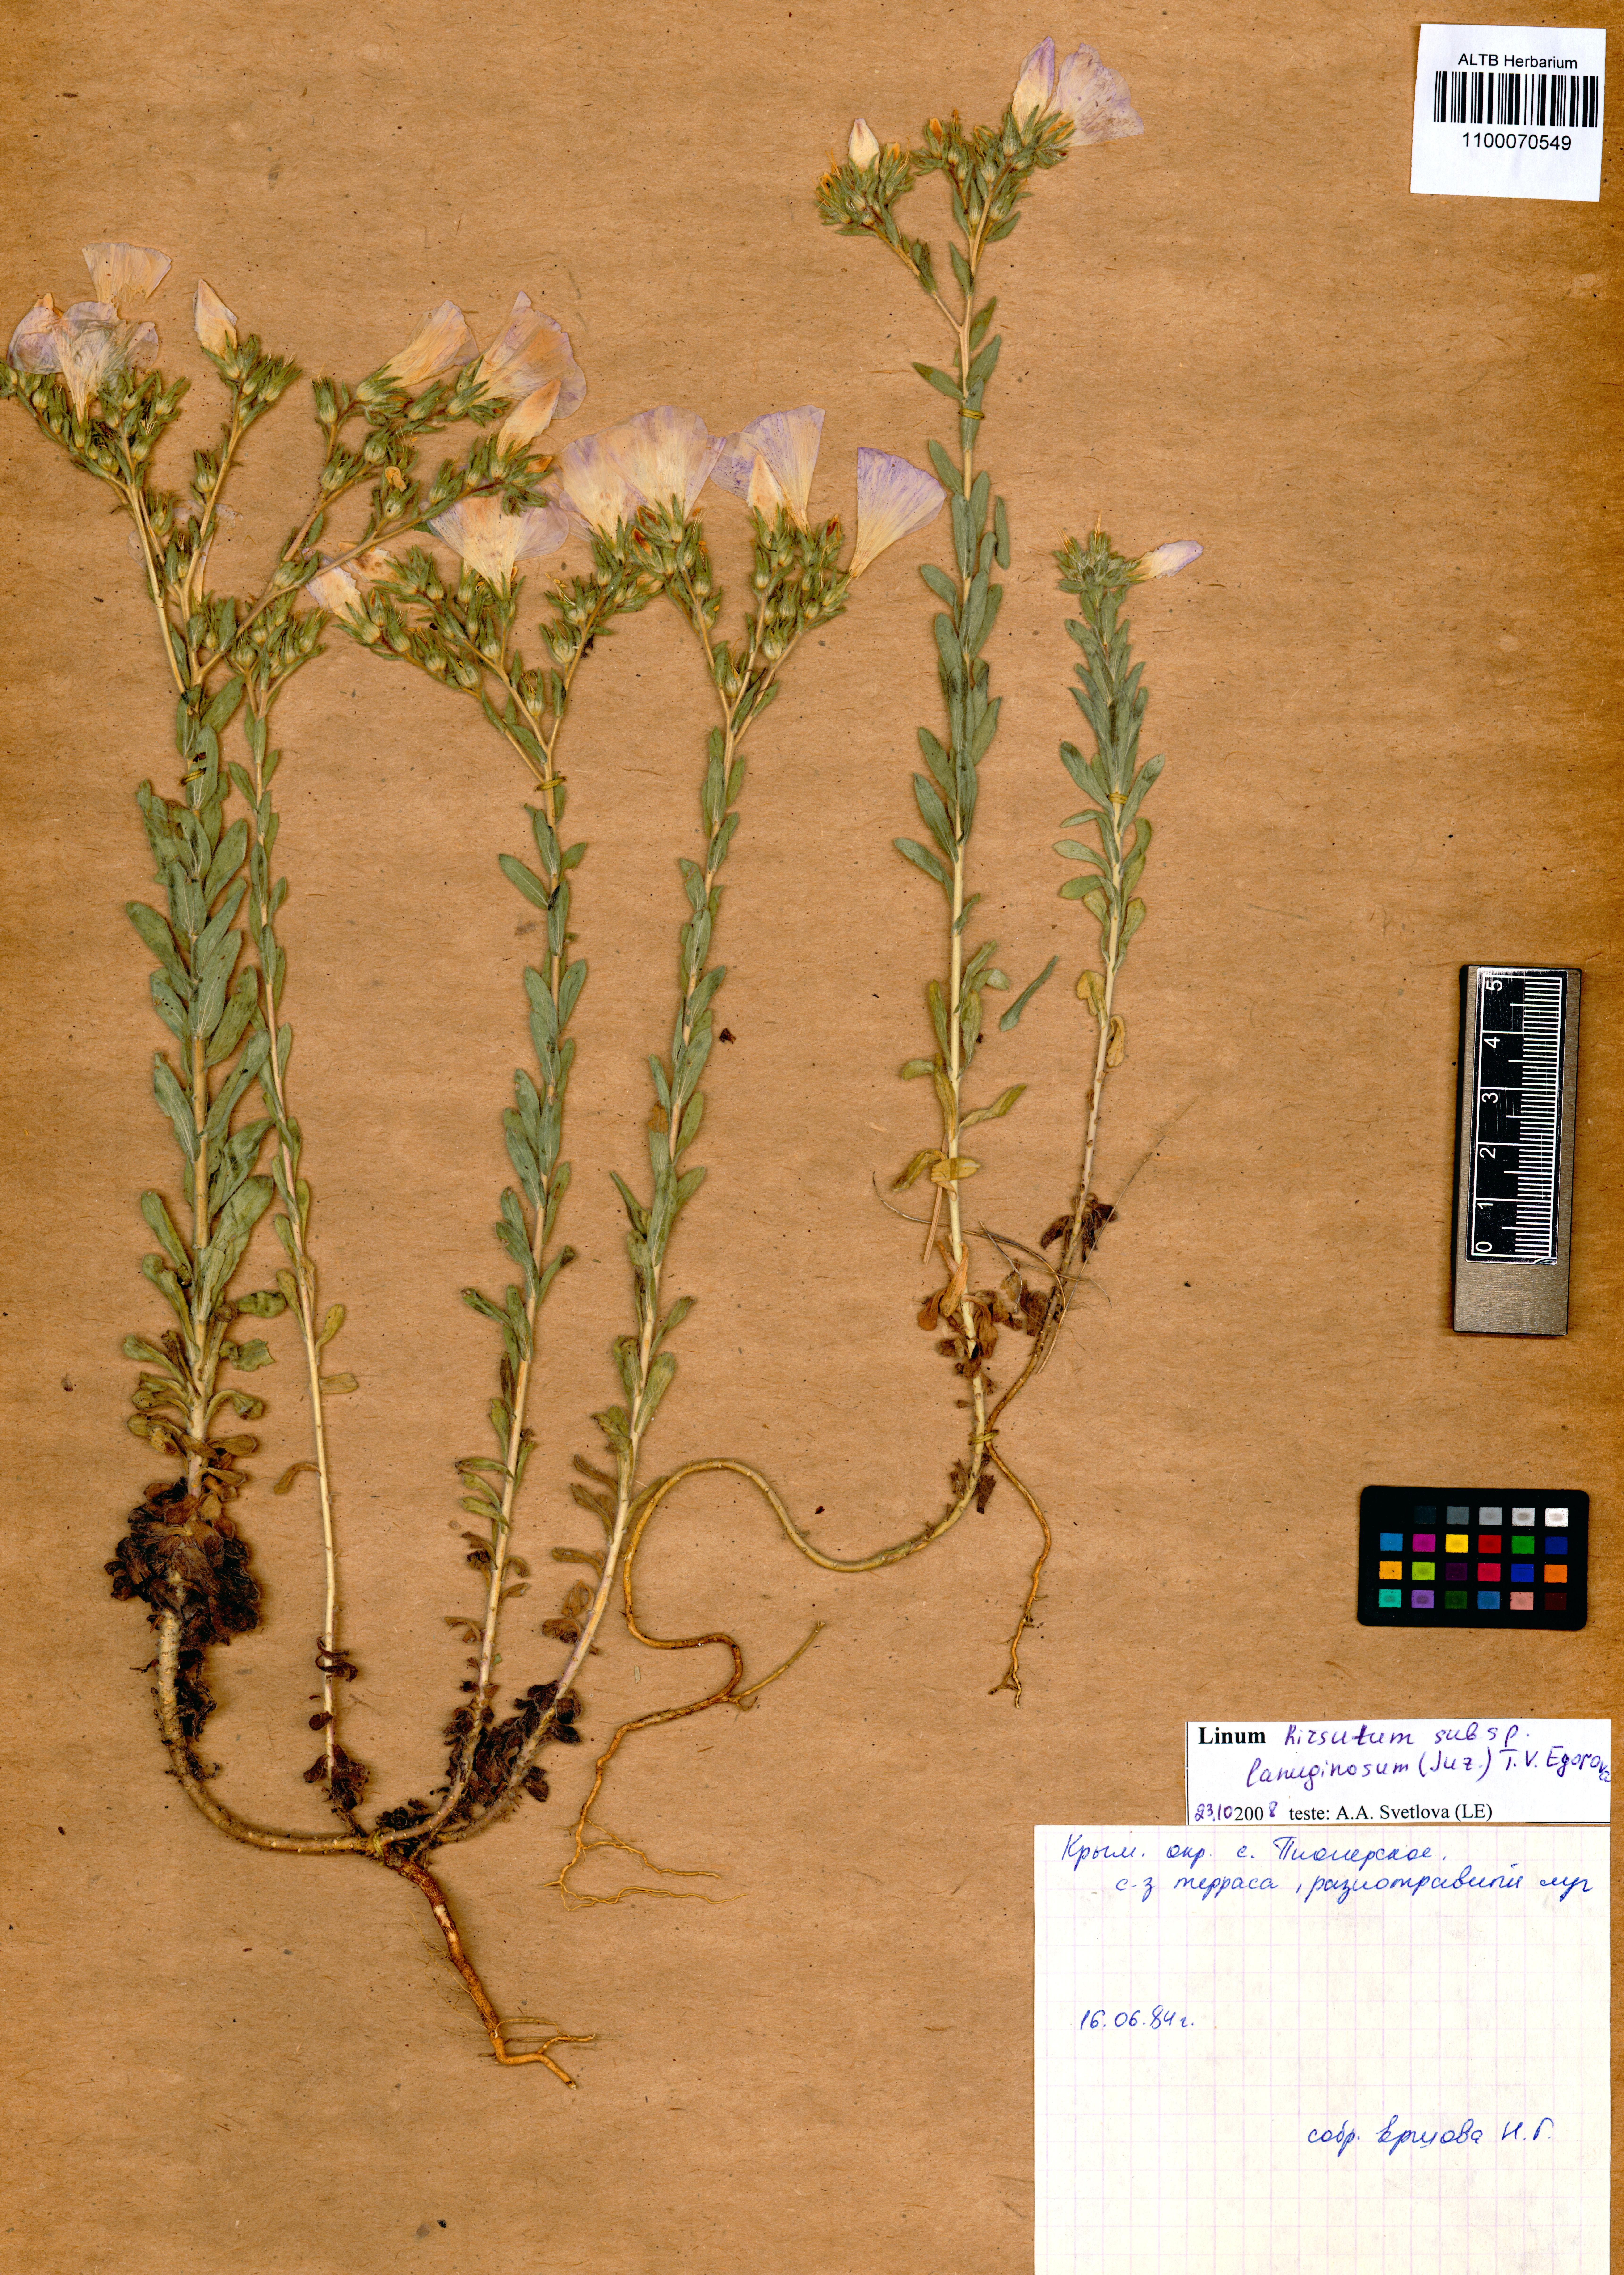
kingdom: Plantae
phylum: Tracheophyta
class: Magnoliopsida
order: Malpighiales
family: Linaceae
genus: Linum
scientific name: Linum hirsutum
